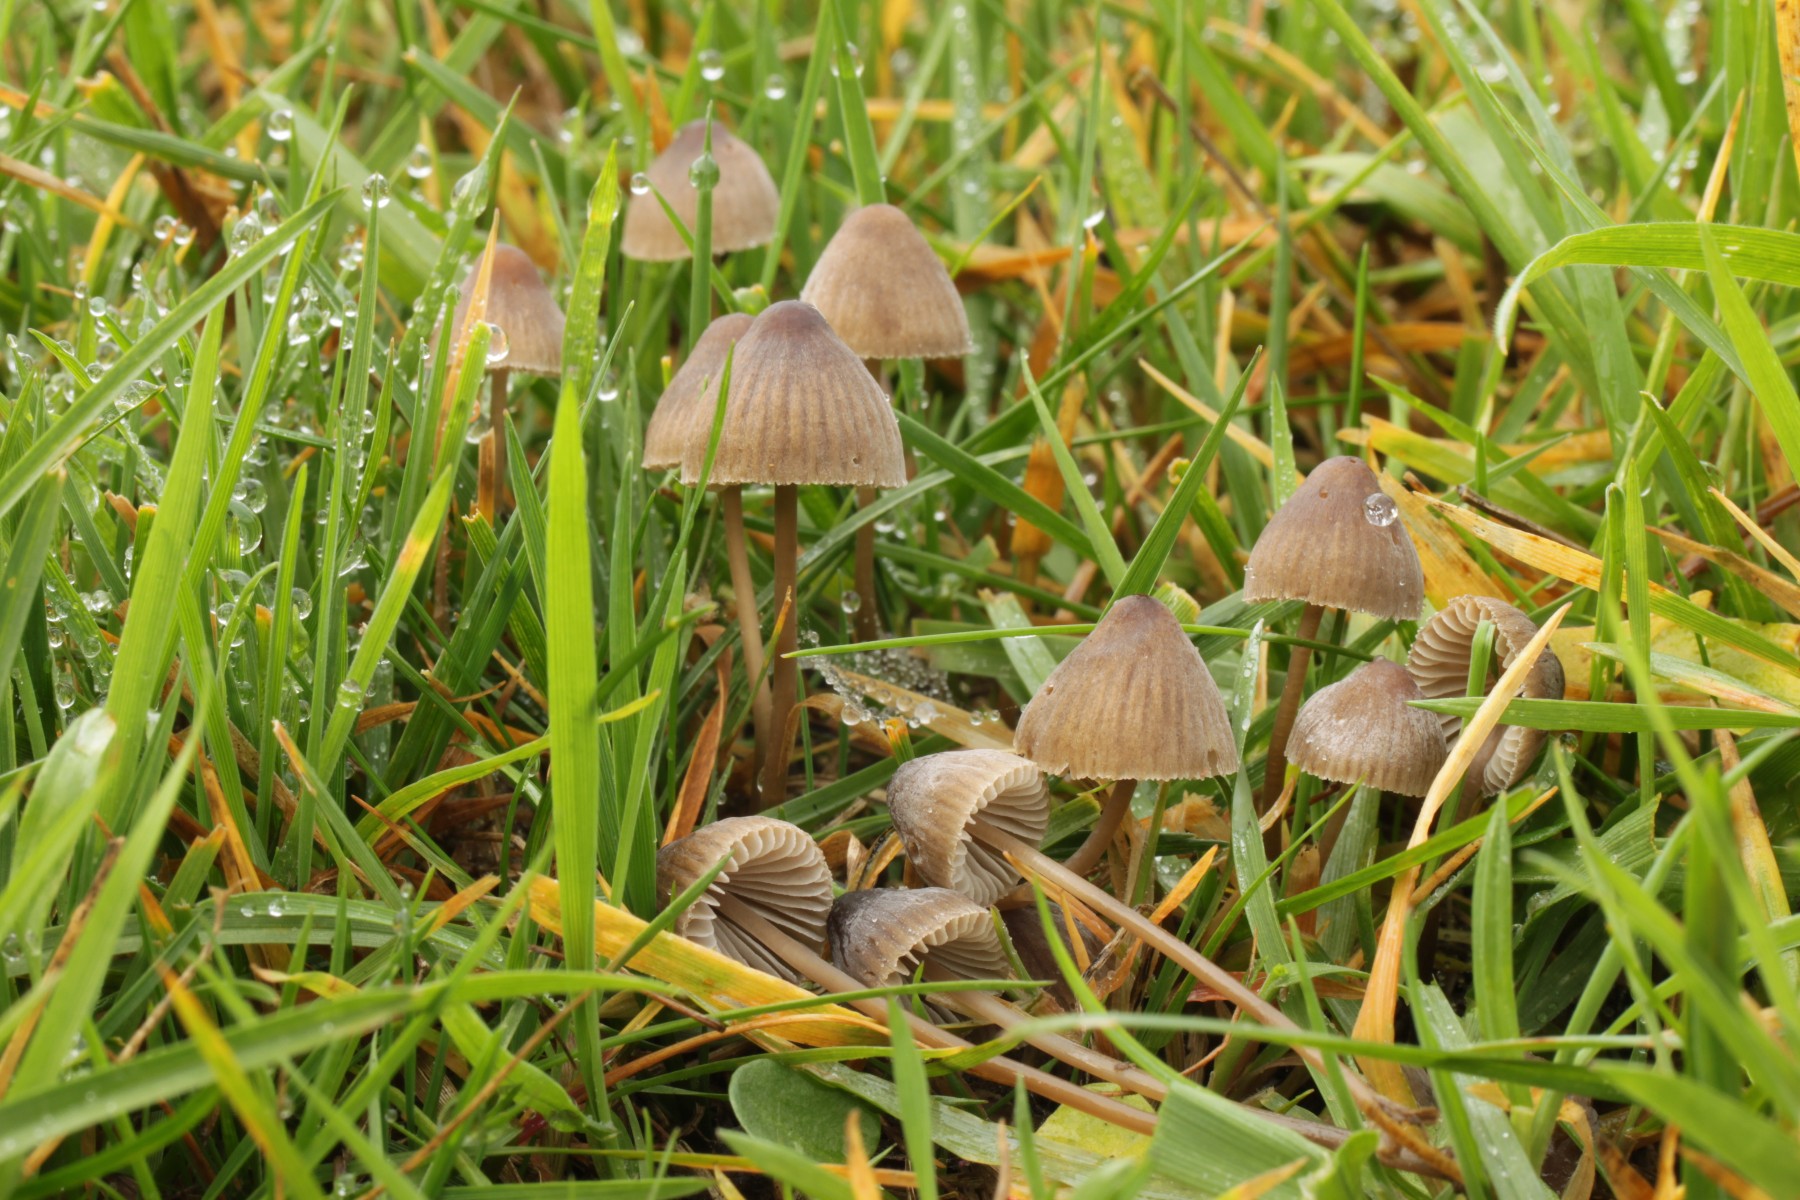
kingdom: Fungi
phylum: Basidiomycota
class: Agaricomycetes
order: Agaricales
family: Mycenaceae
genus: Mycena
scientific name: Mycena filopes
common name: Iodine bonnet
